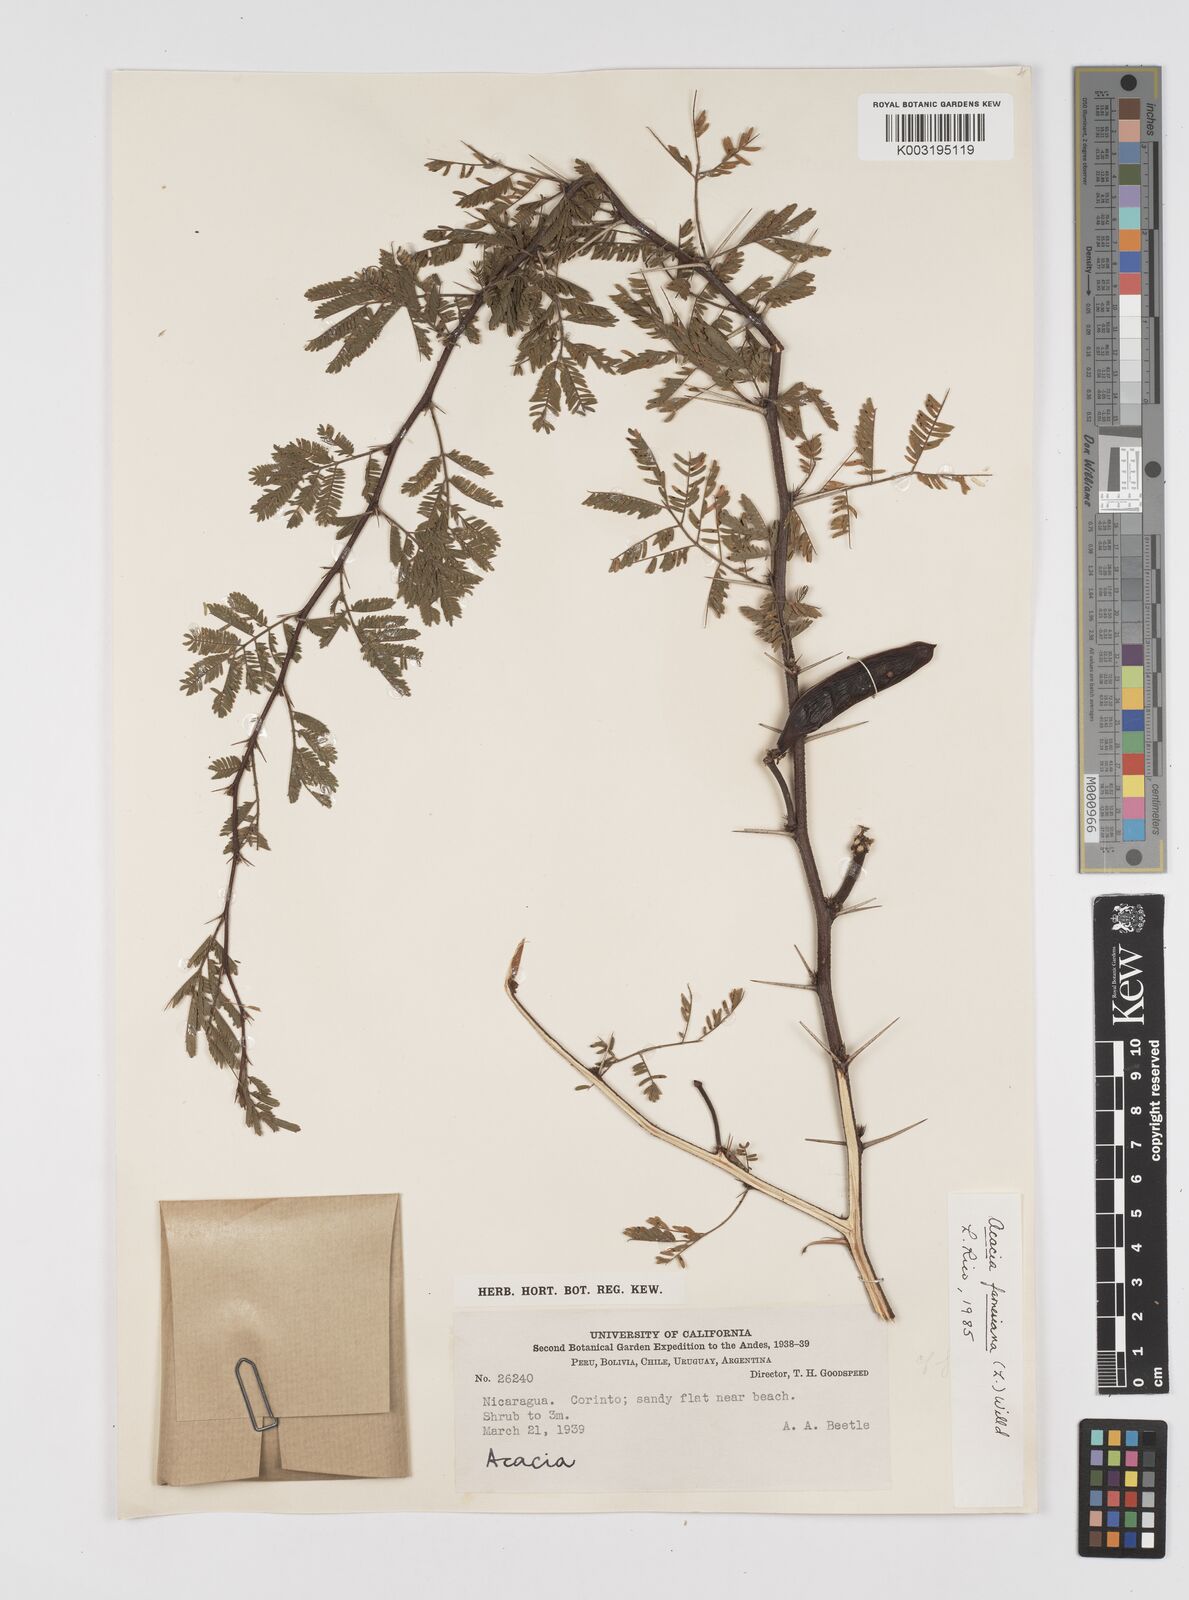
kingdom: Plantae
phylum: Tracheophyta
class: Magnoliopsida
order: Fabales
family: Fabaceae
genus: Vachellia
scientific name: Vachellia farnesiana
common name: Sweet acacia
